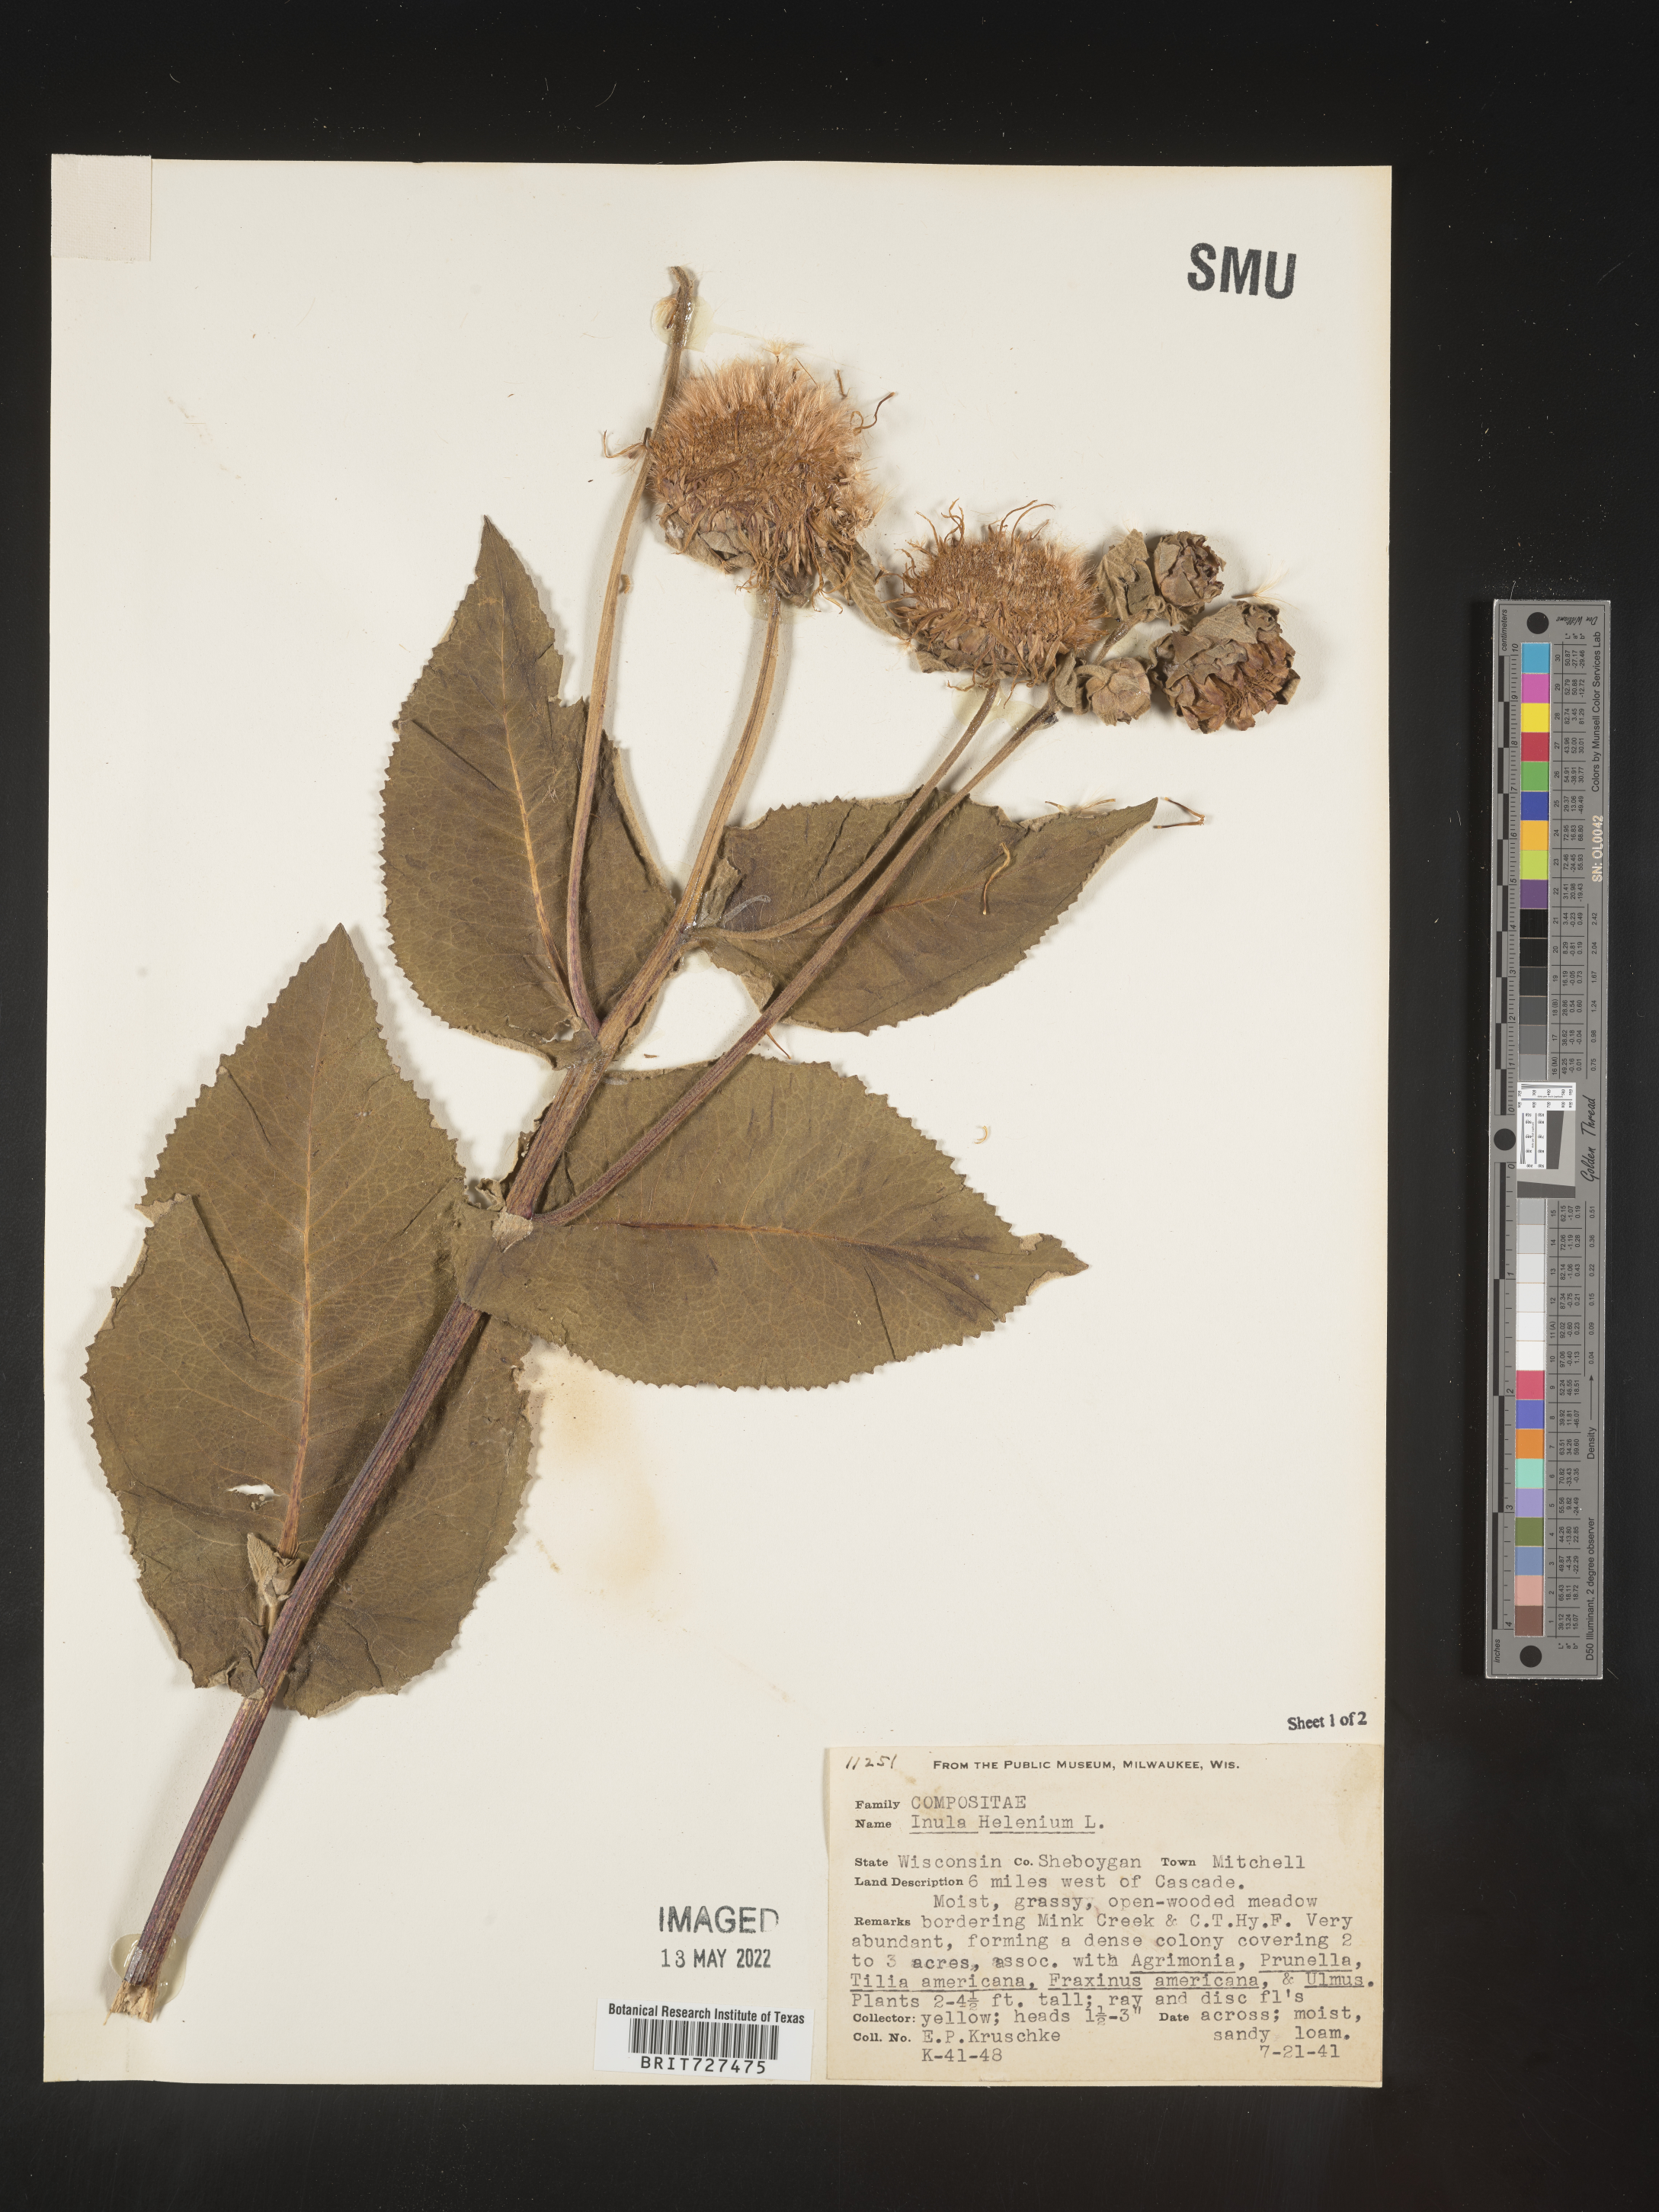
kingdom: Plantae
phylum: Tracheophyta
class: Magnoliopsida
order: Asterales
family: Asteraceae
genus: Inula
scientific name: Inula helenium
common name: Elecampane
